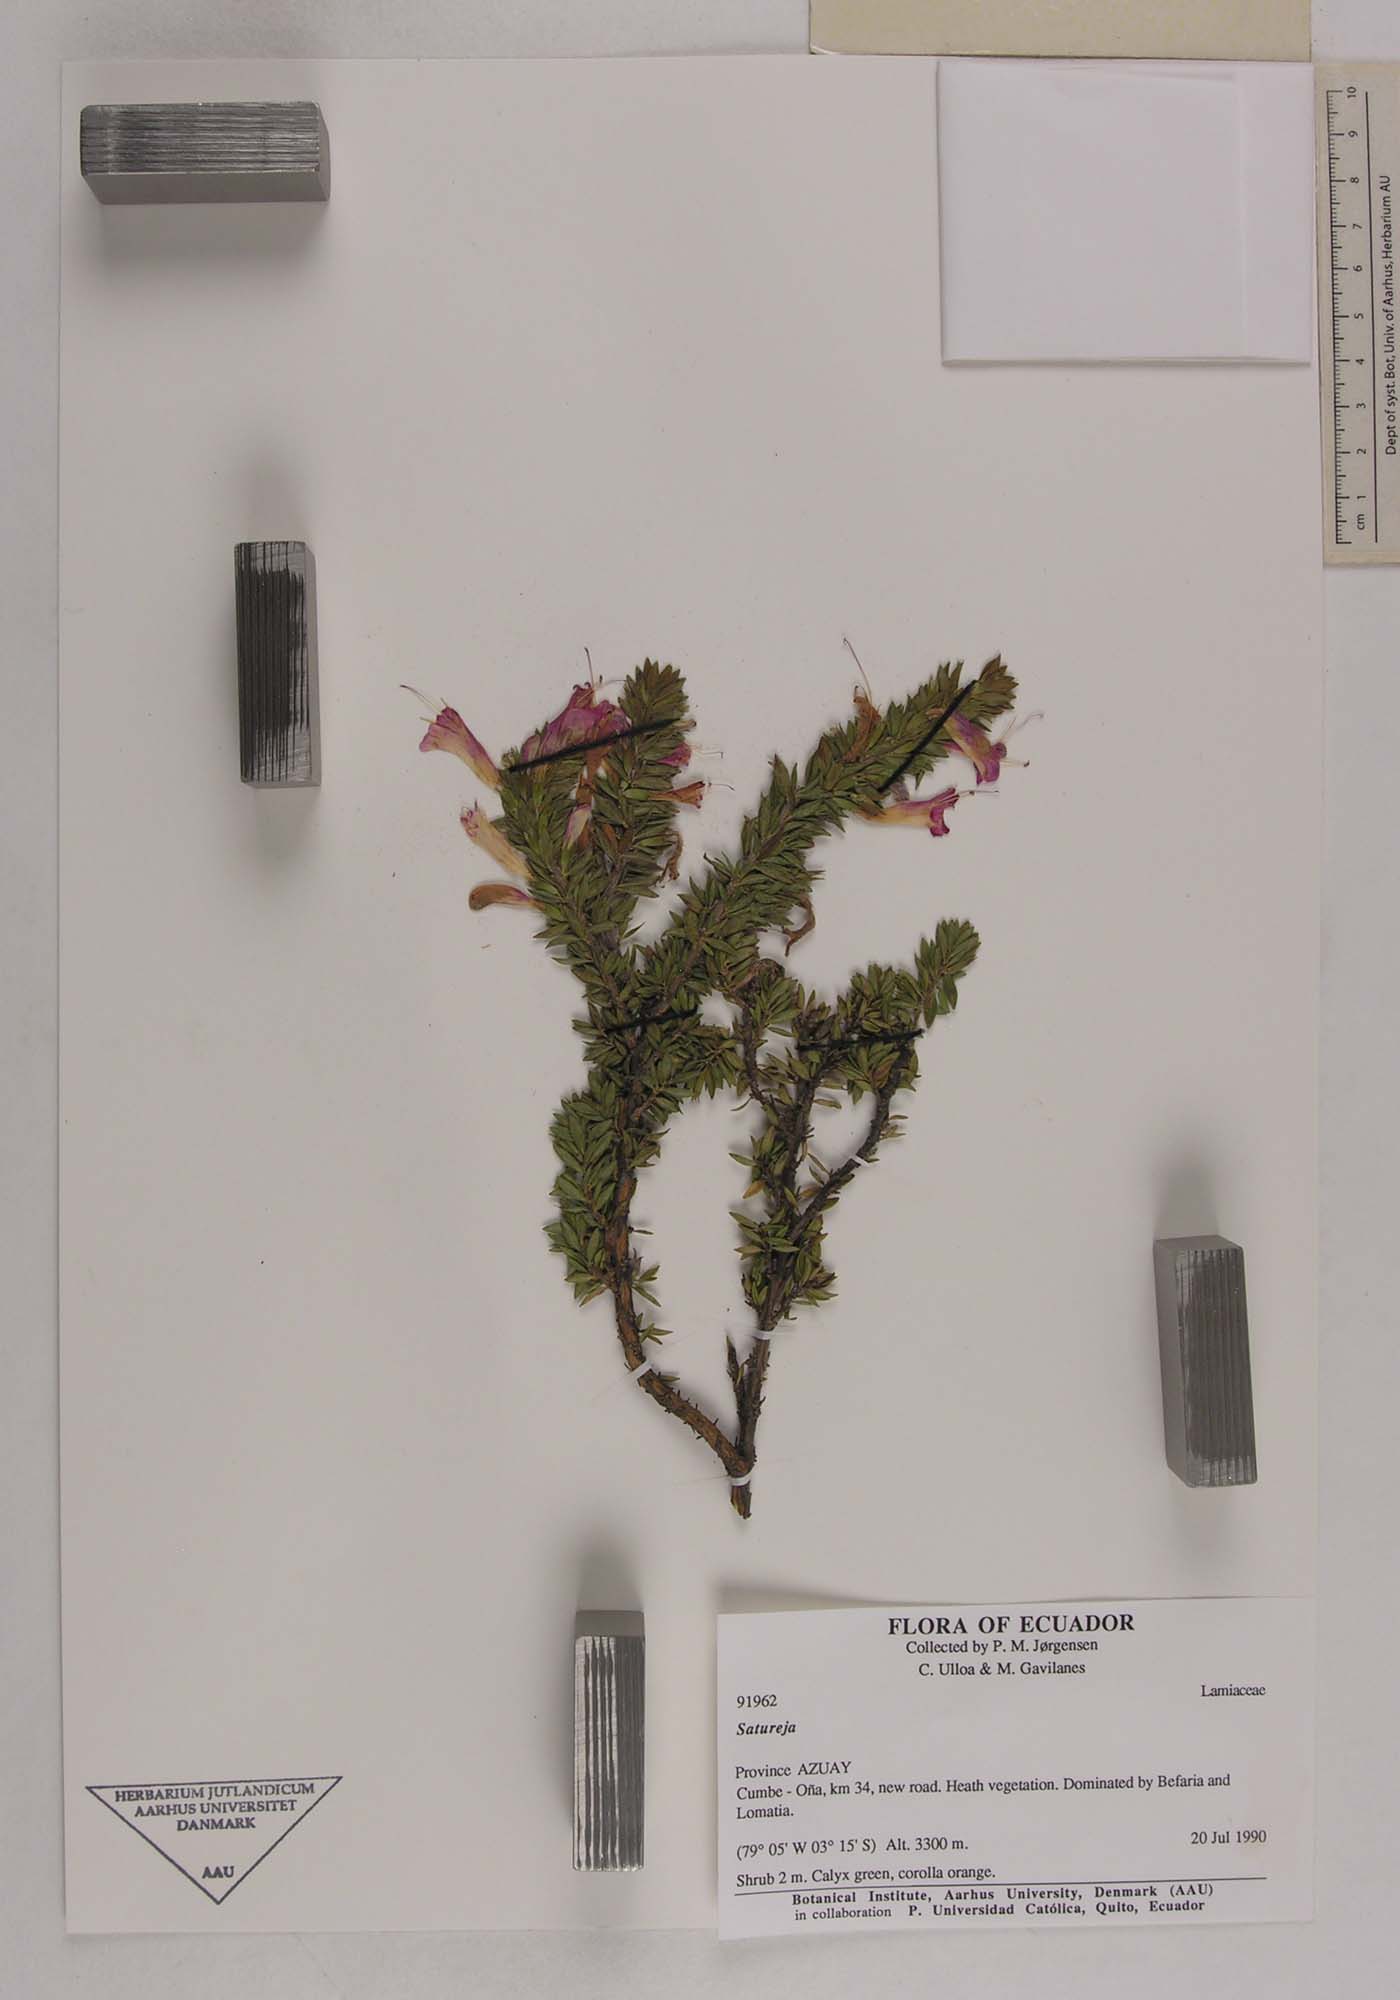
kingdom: Plantae
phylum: Tracheophyta
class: Magnoliopsida
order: Lamiales
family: Lamiaceae
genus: Clinopodium
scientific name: Clinopodium taxifolium
